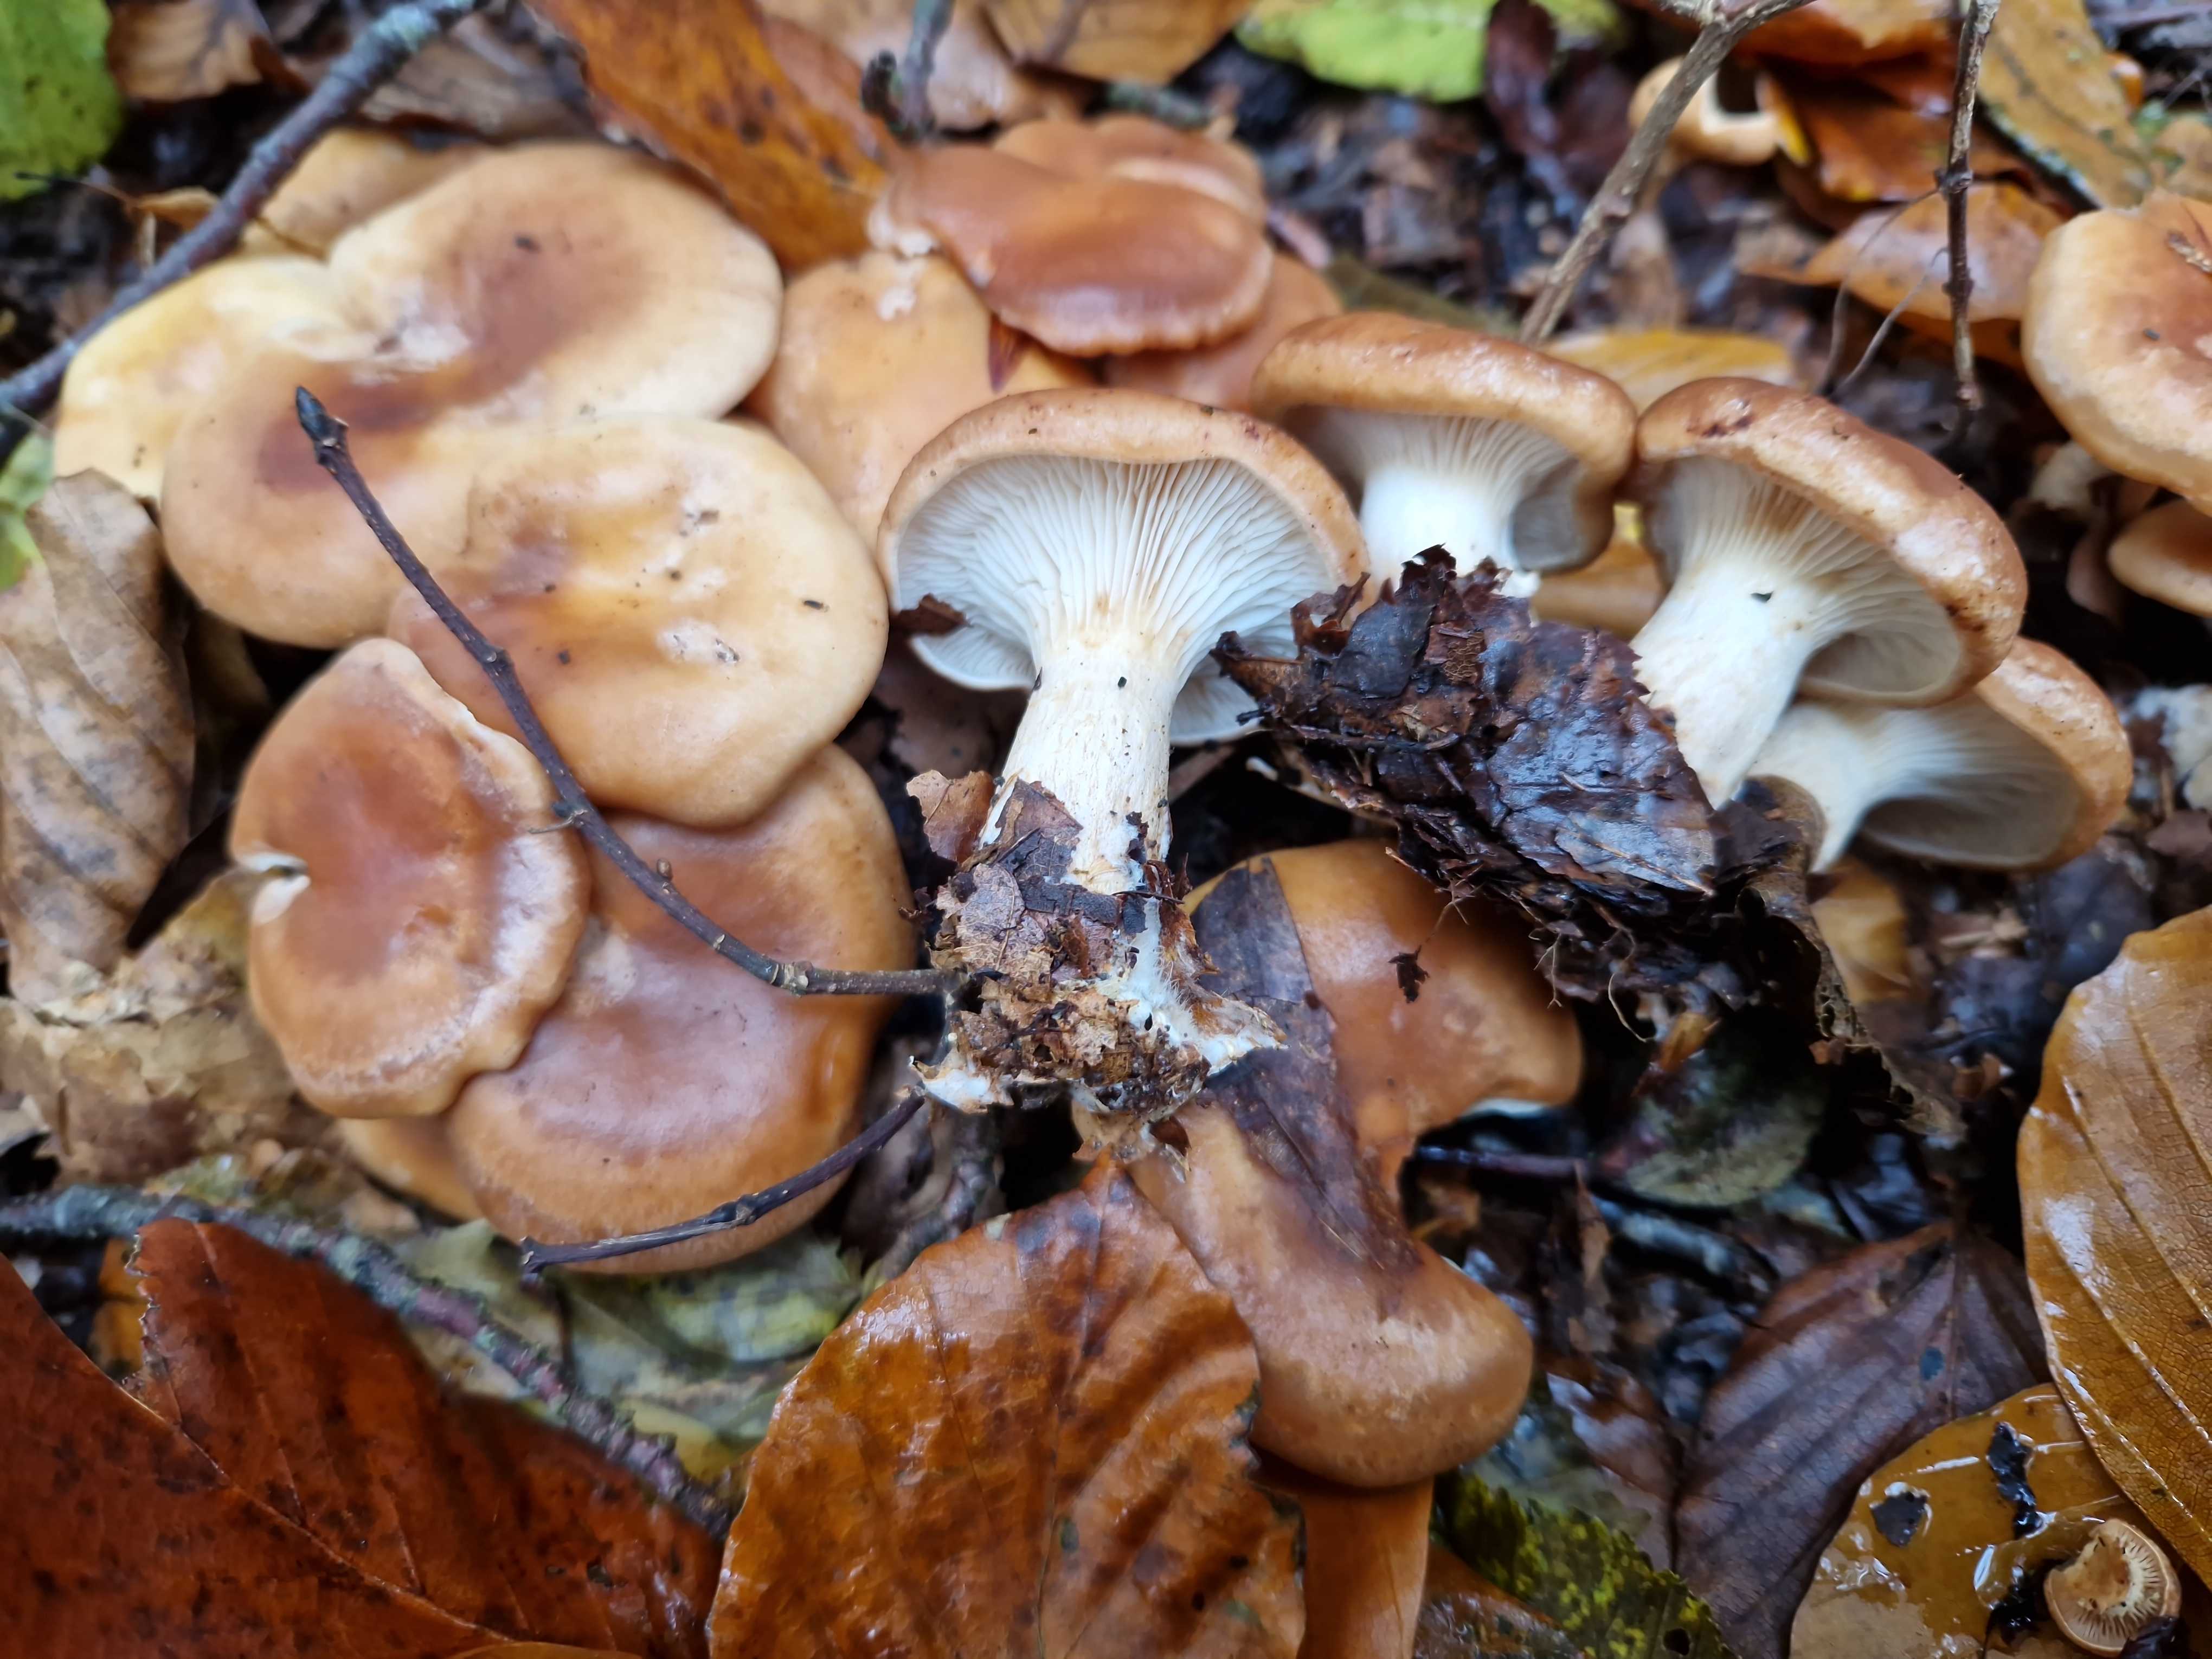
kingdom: Fungi
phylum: Basidiomycota
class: Agaricomycetes
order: Agaricales
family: Tricholomataceae
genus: Paralepista
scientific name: Paralepista flaccida
